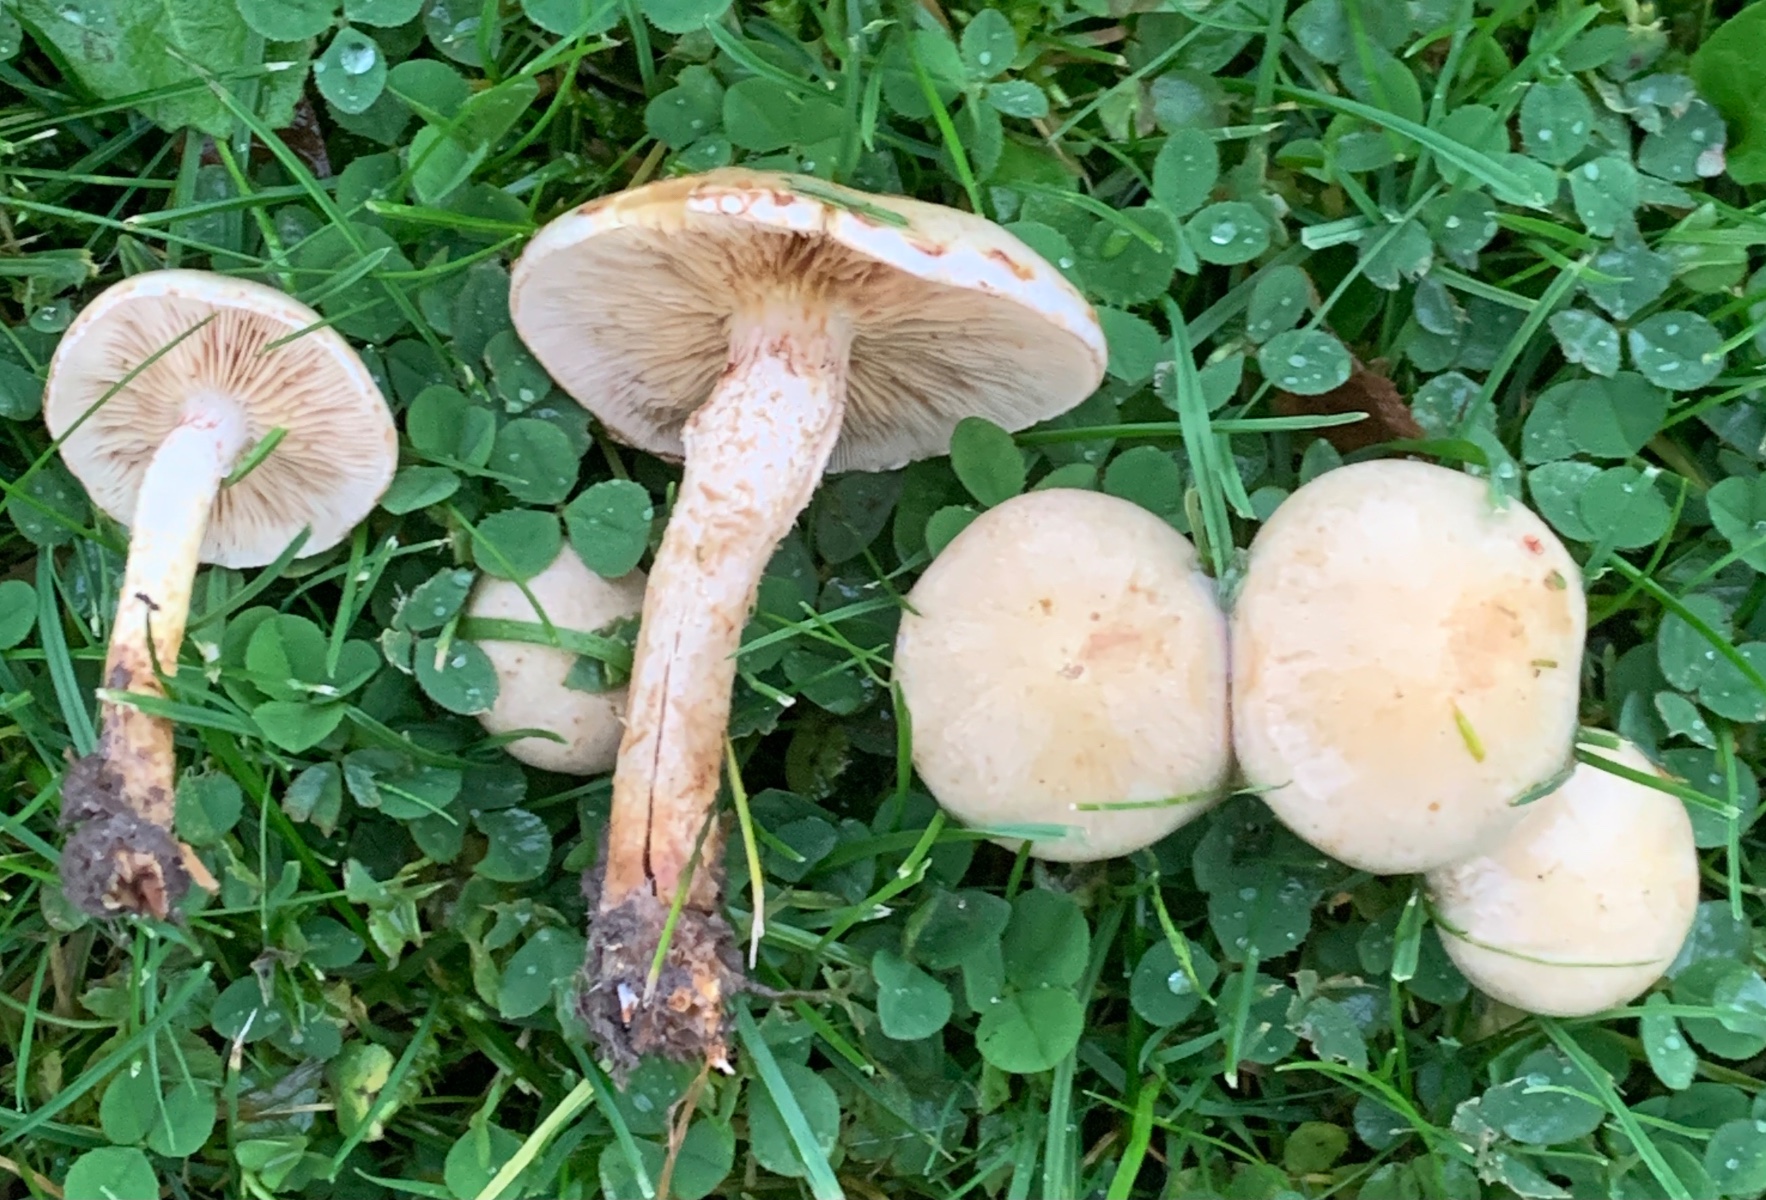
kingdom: Fungi
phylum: Basidiomycota
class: Agaricomycetes
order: Agaricales
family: Strophariaceae
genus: Pholiota
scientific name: Pholiota gummosa
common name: grøngul skælhat
